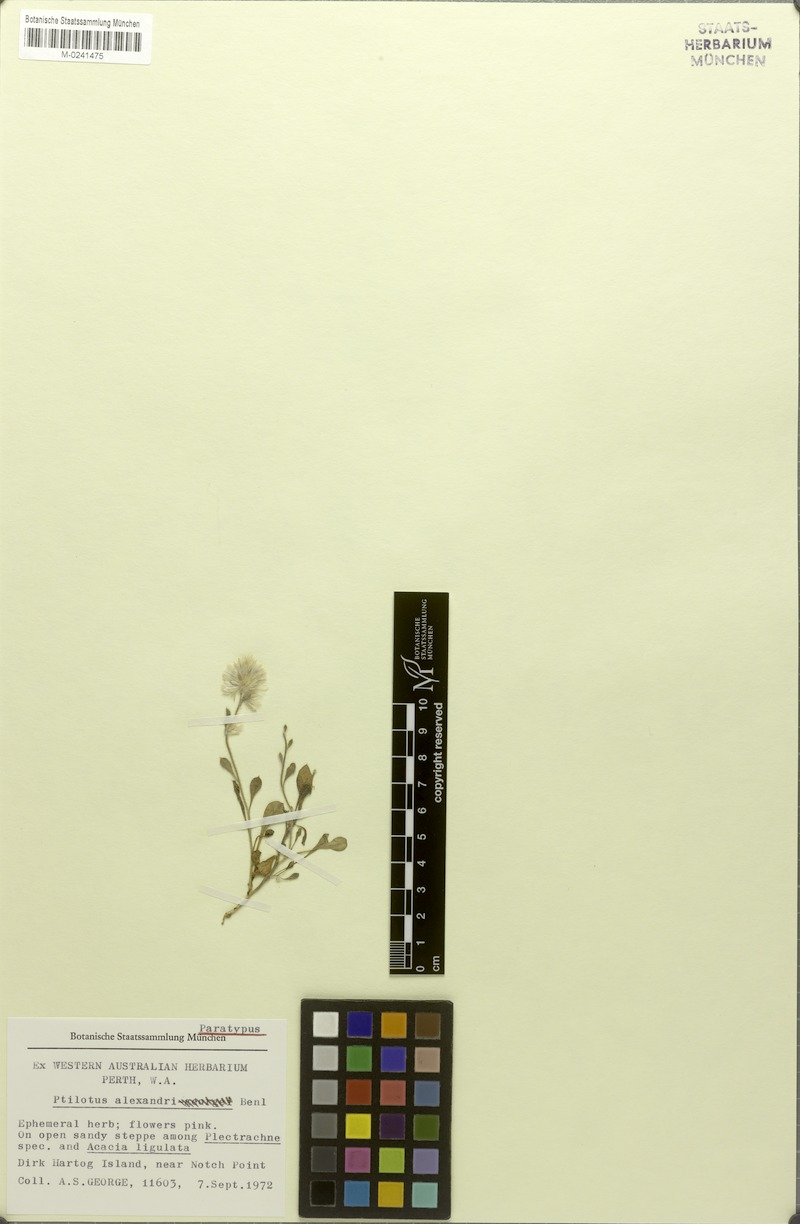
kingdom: Plantae
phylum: Tracheophyta
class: Magnoliopsida
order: Caryophyllales
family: Amaranthaceae
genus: Ptilotus
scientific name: Ptilotus alexandri
